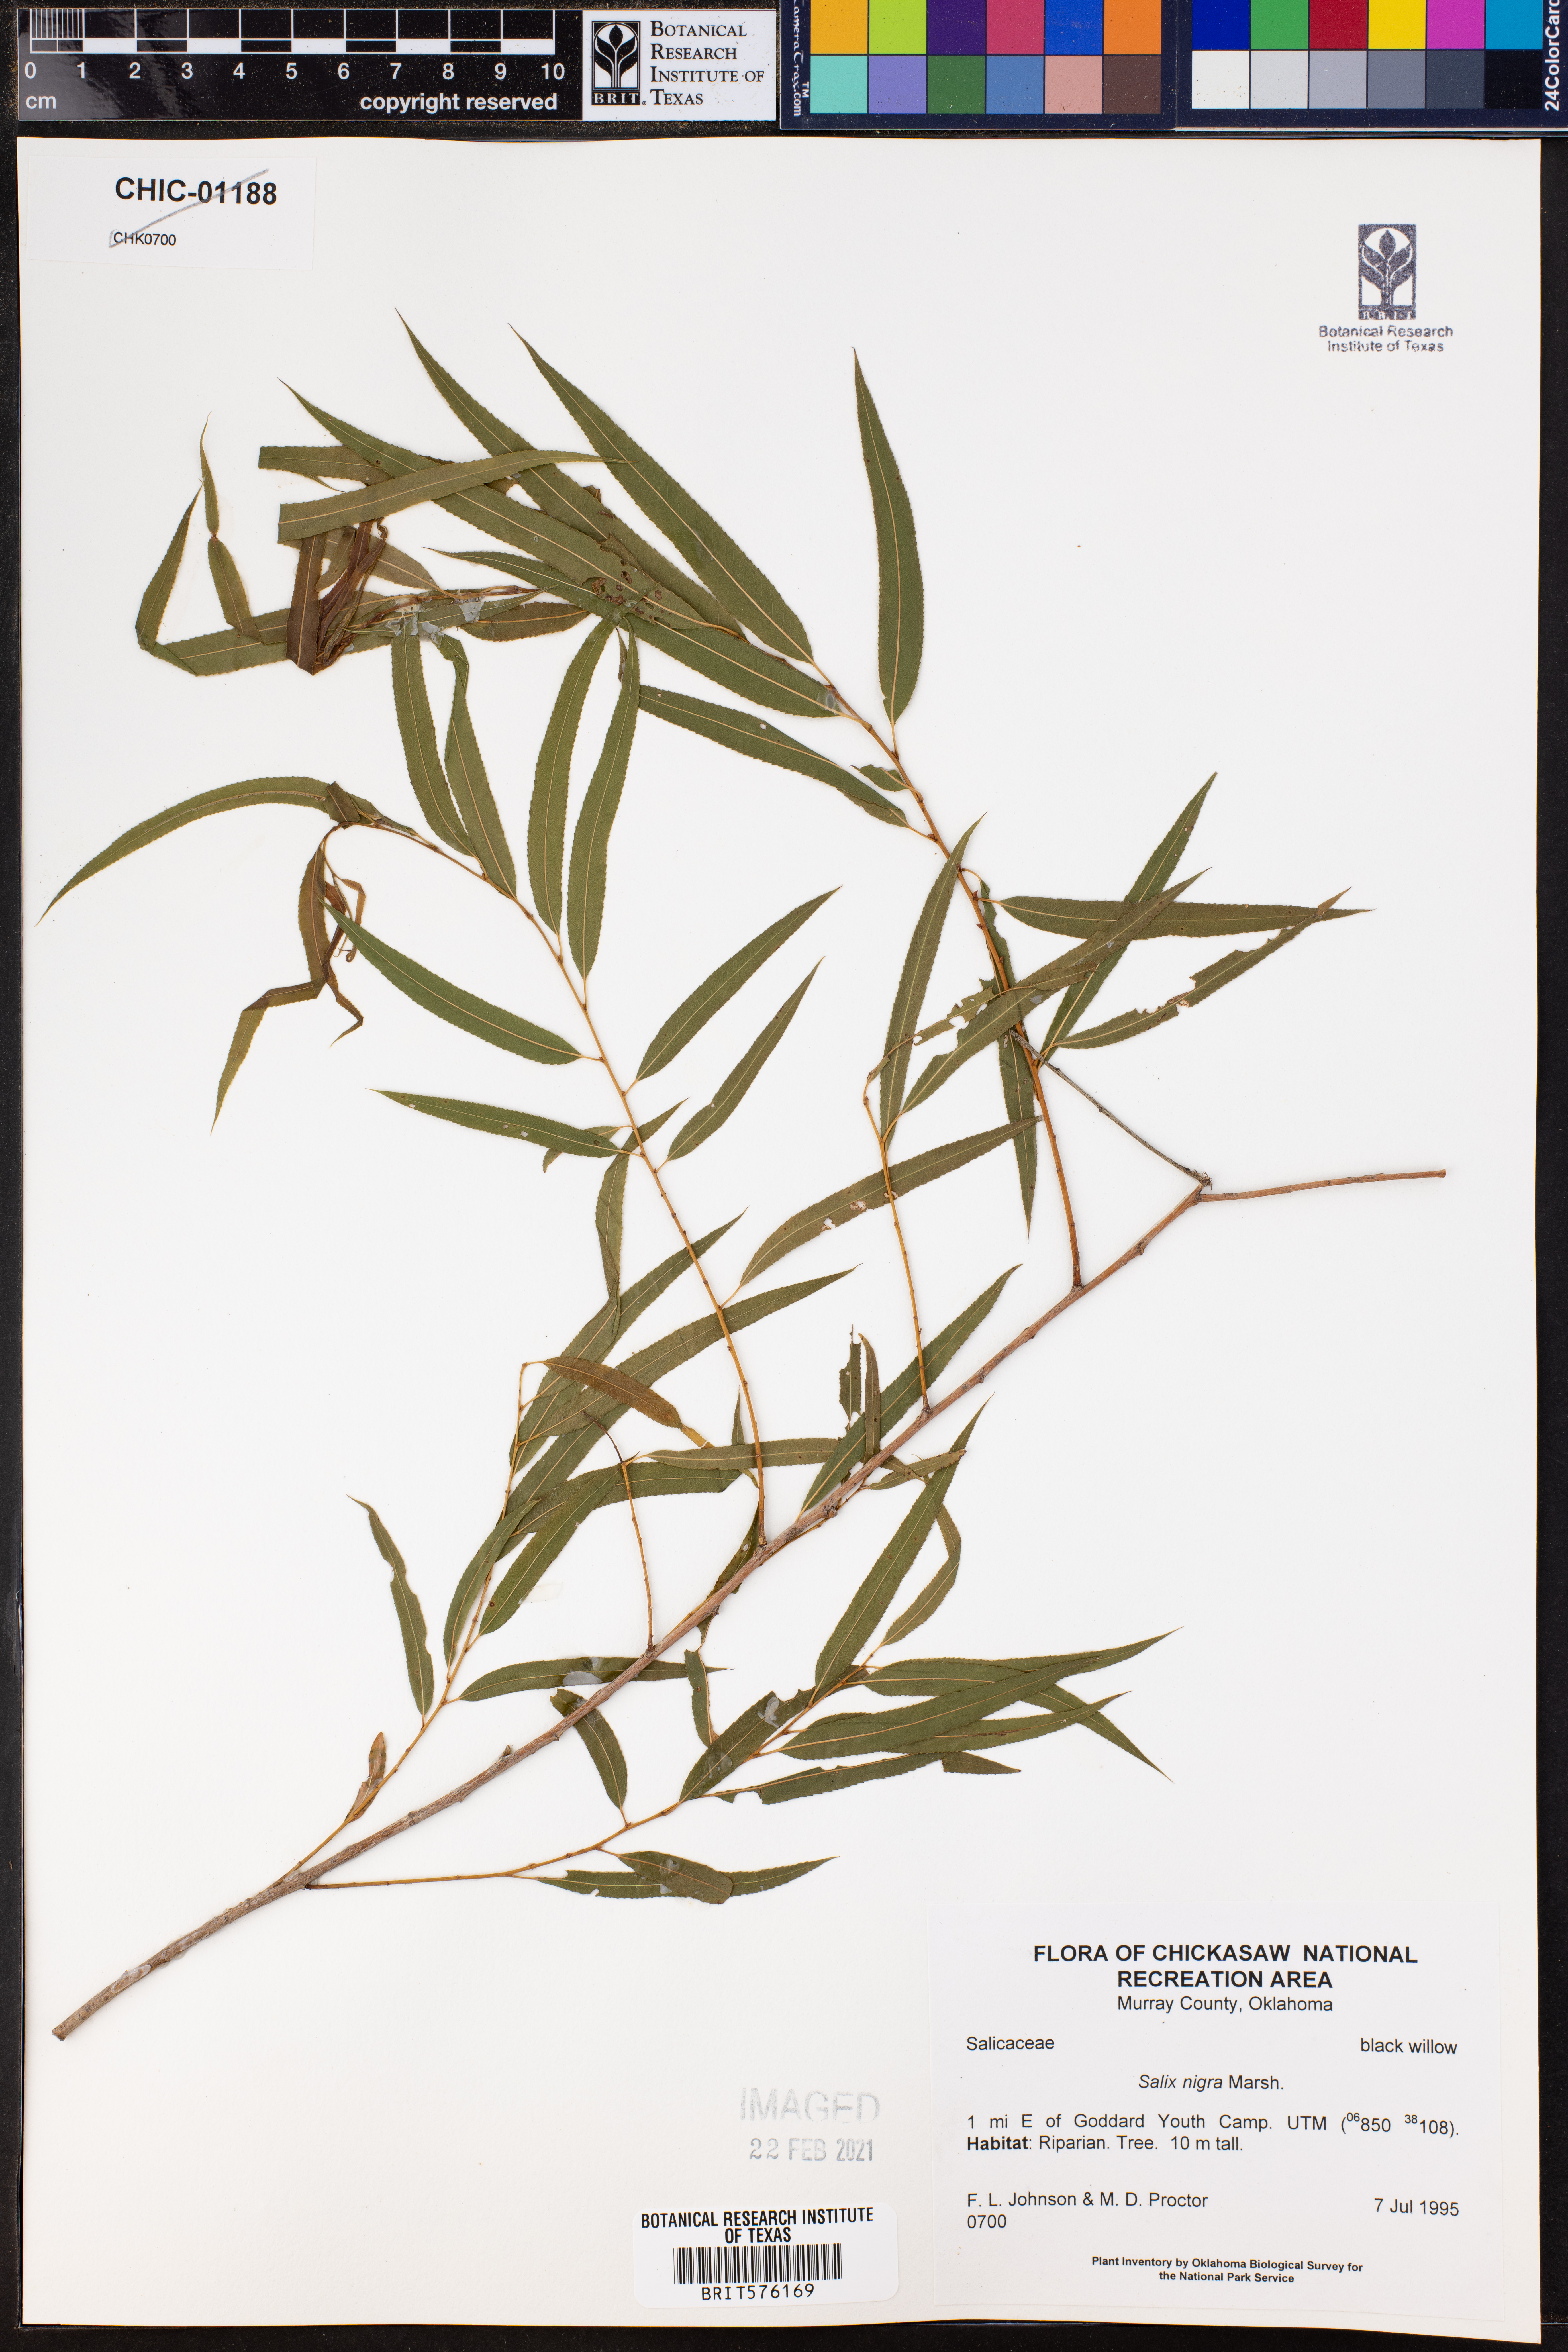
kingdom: Plantae
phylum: Tracheophyta
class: Magnoliopsida
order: Malpighiales
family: Salicaceae
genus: Salix
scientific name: Salix nigra
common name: Black willow
